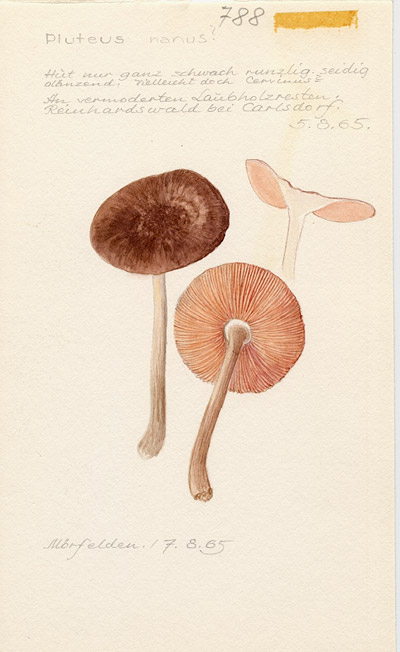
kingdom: Fungi
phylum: Basidiomycota
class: Agaricomycetes
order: Agaricales
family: Pluteaceae
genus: Pluteus
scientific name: Pluteus nanus
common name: Dwarf shield
